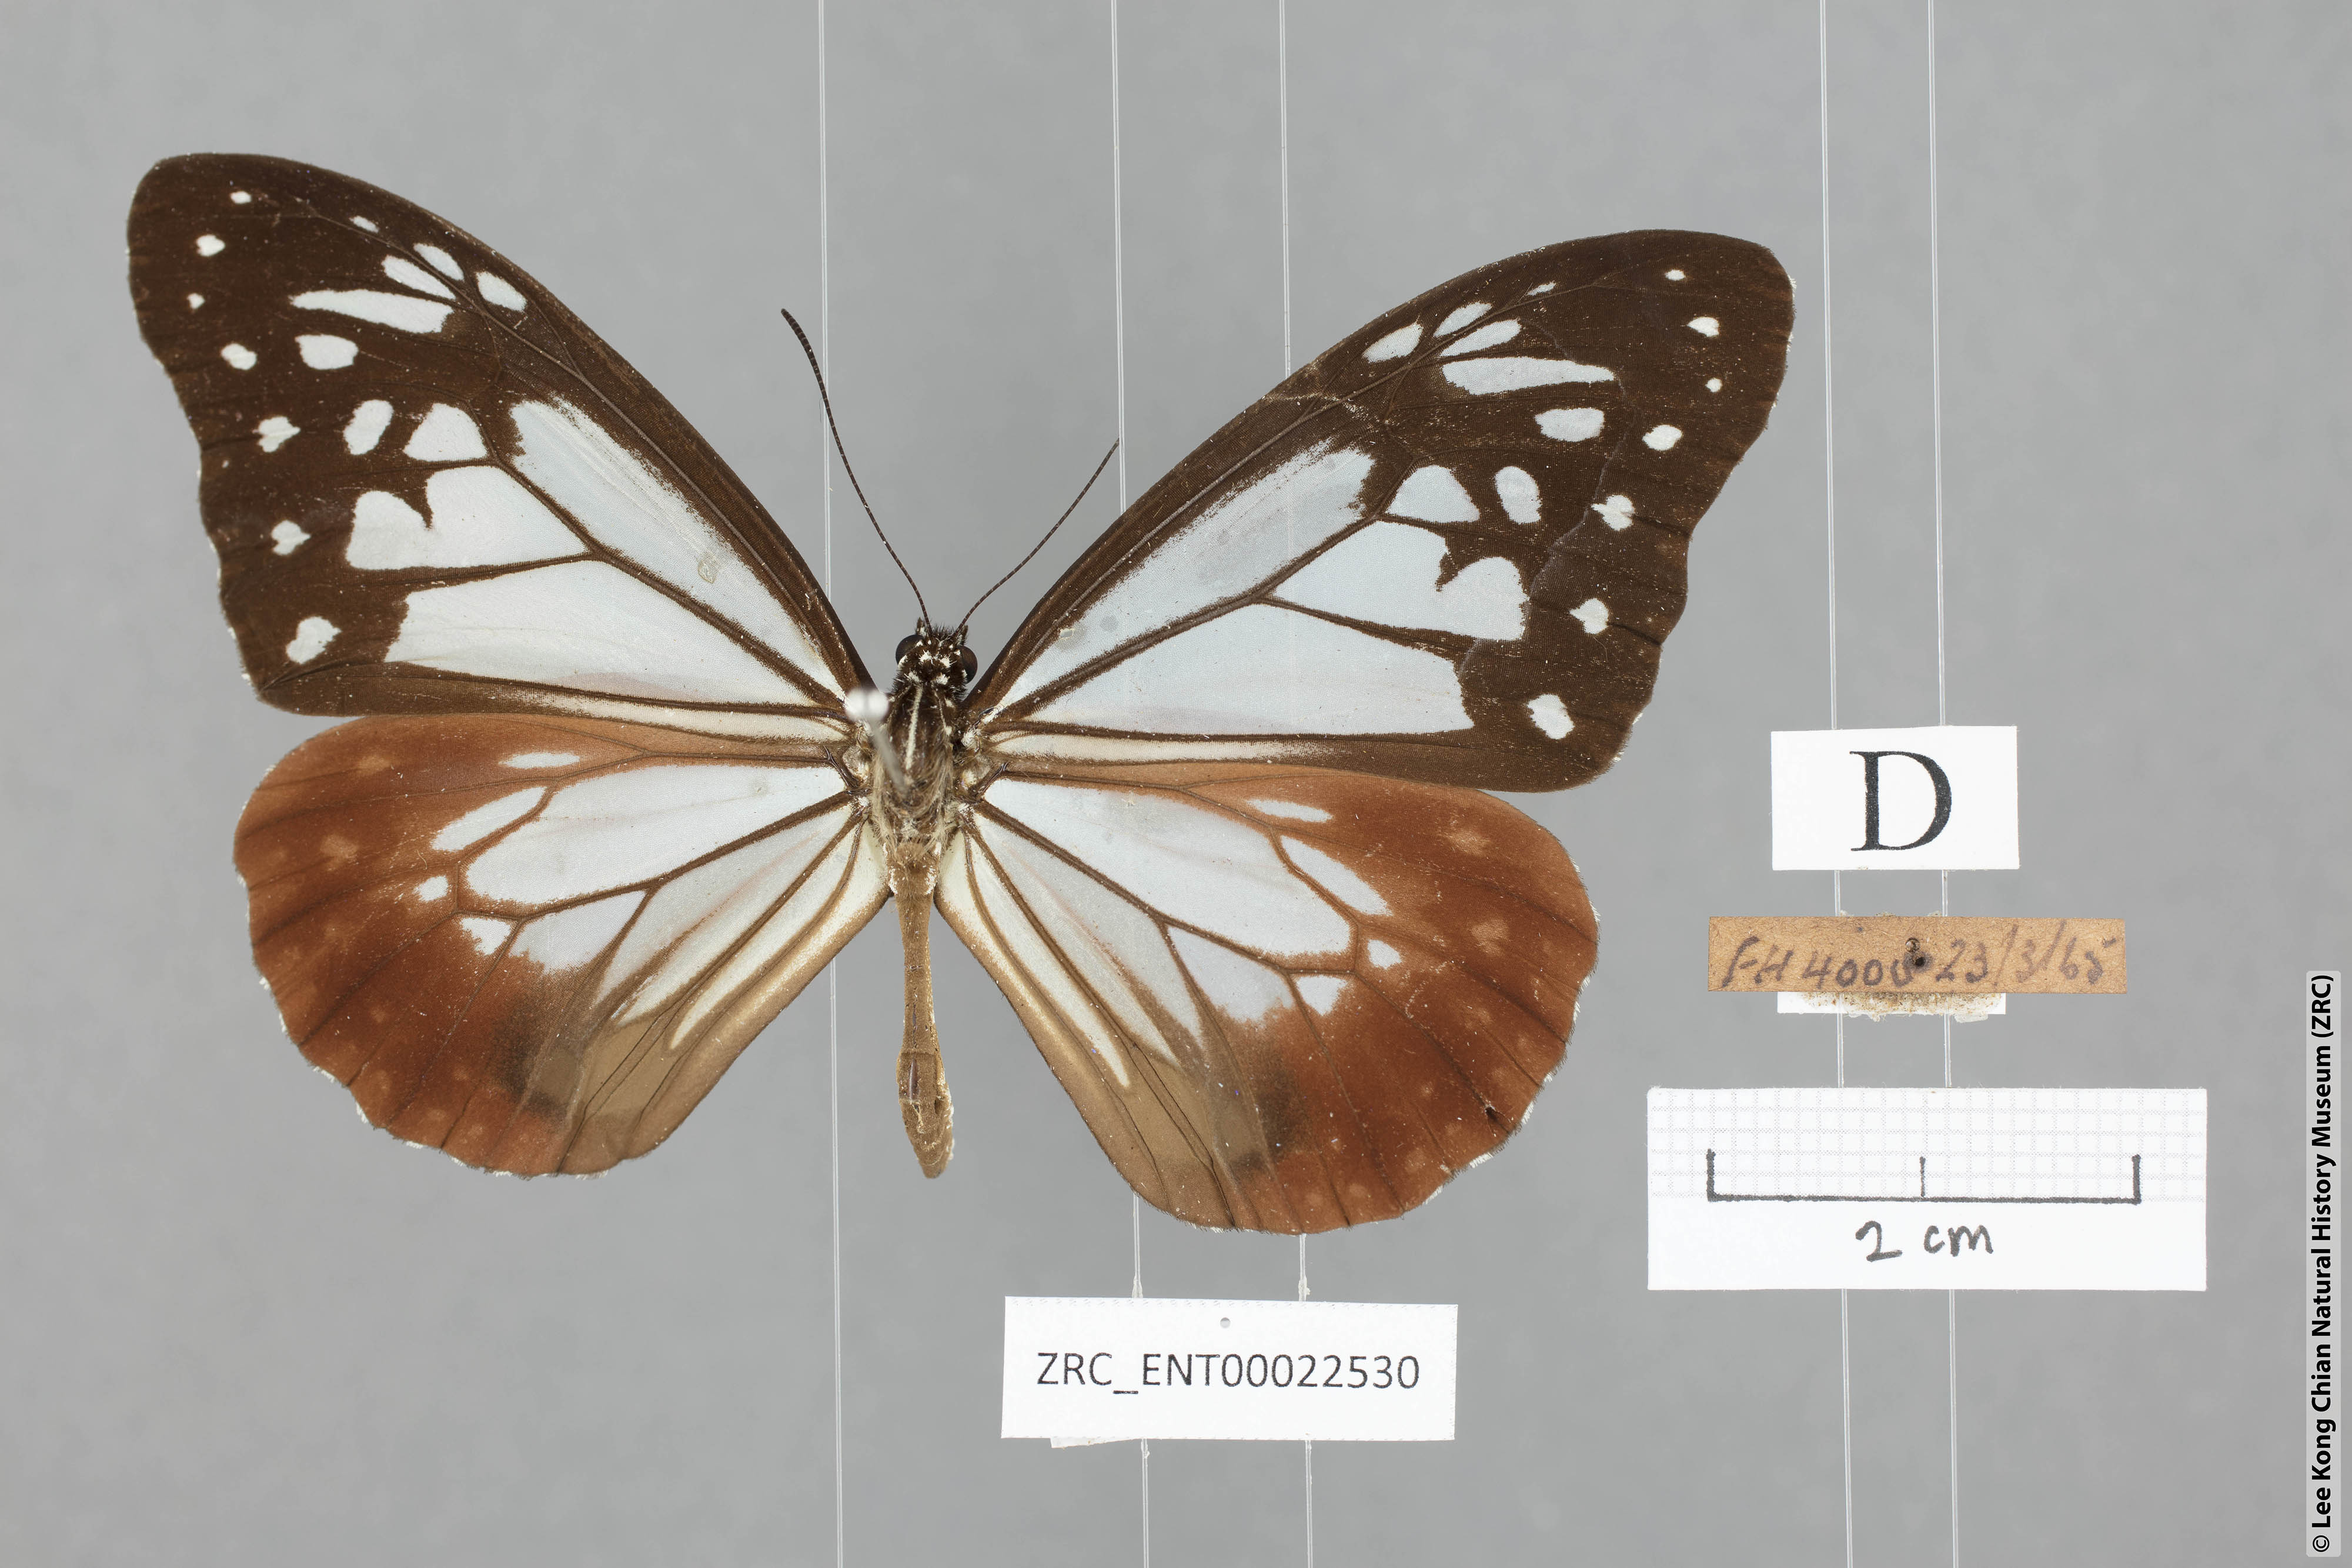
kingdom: Animalia
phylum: Arthropoda
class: Insecta
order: Lepidoptera
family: Nymphalidae
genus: Parantica
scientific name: Parantica sita
